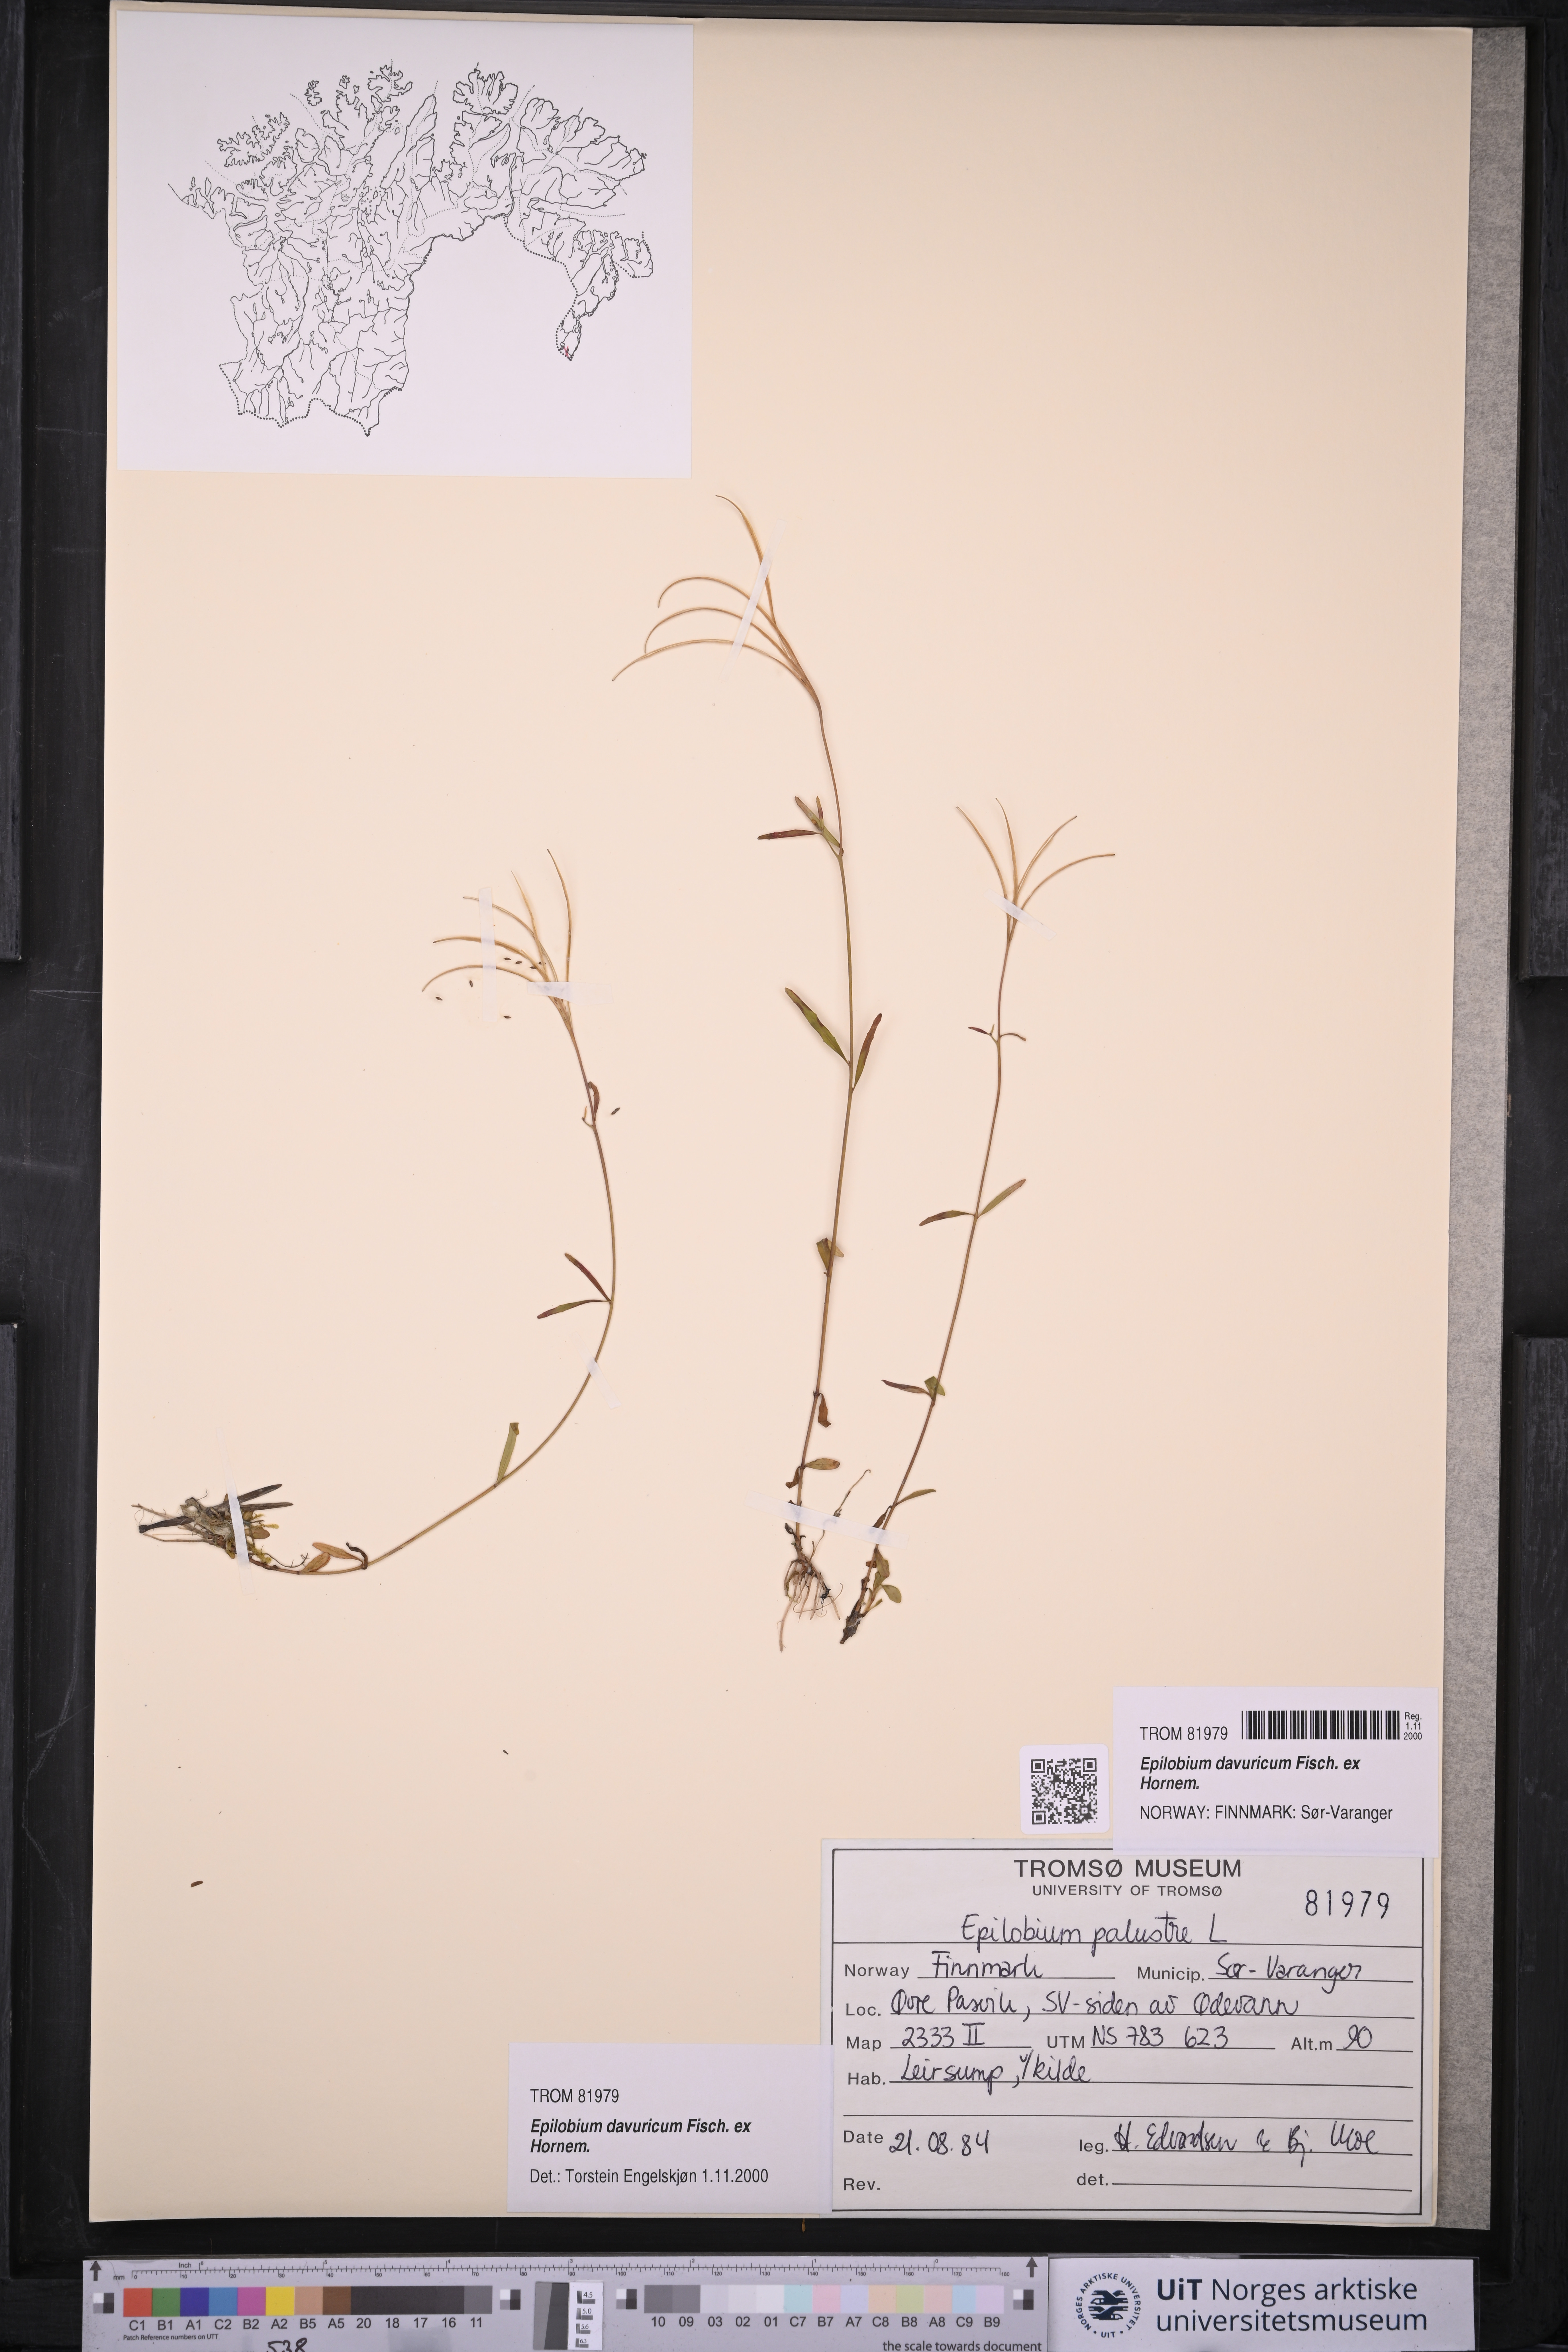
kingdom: Plantae
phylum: Tracheophyta
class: Magnoliopsida
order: Myrtales
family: Onagraceae
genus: Epilobium
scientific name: Epilobium davuricum
